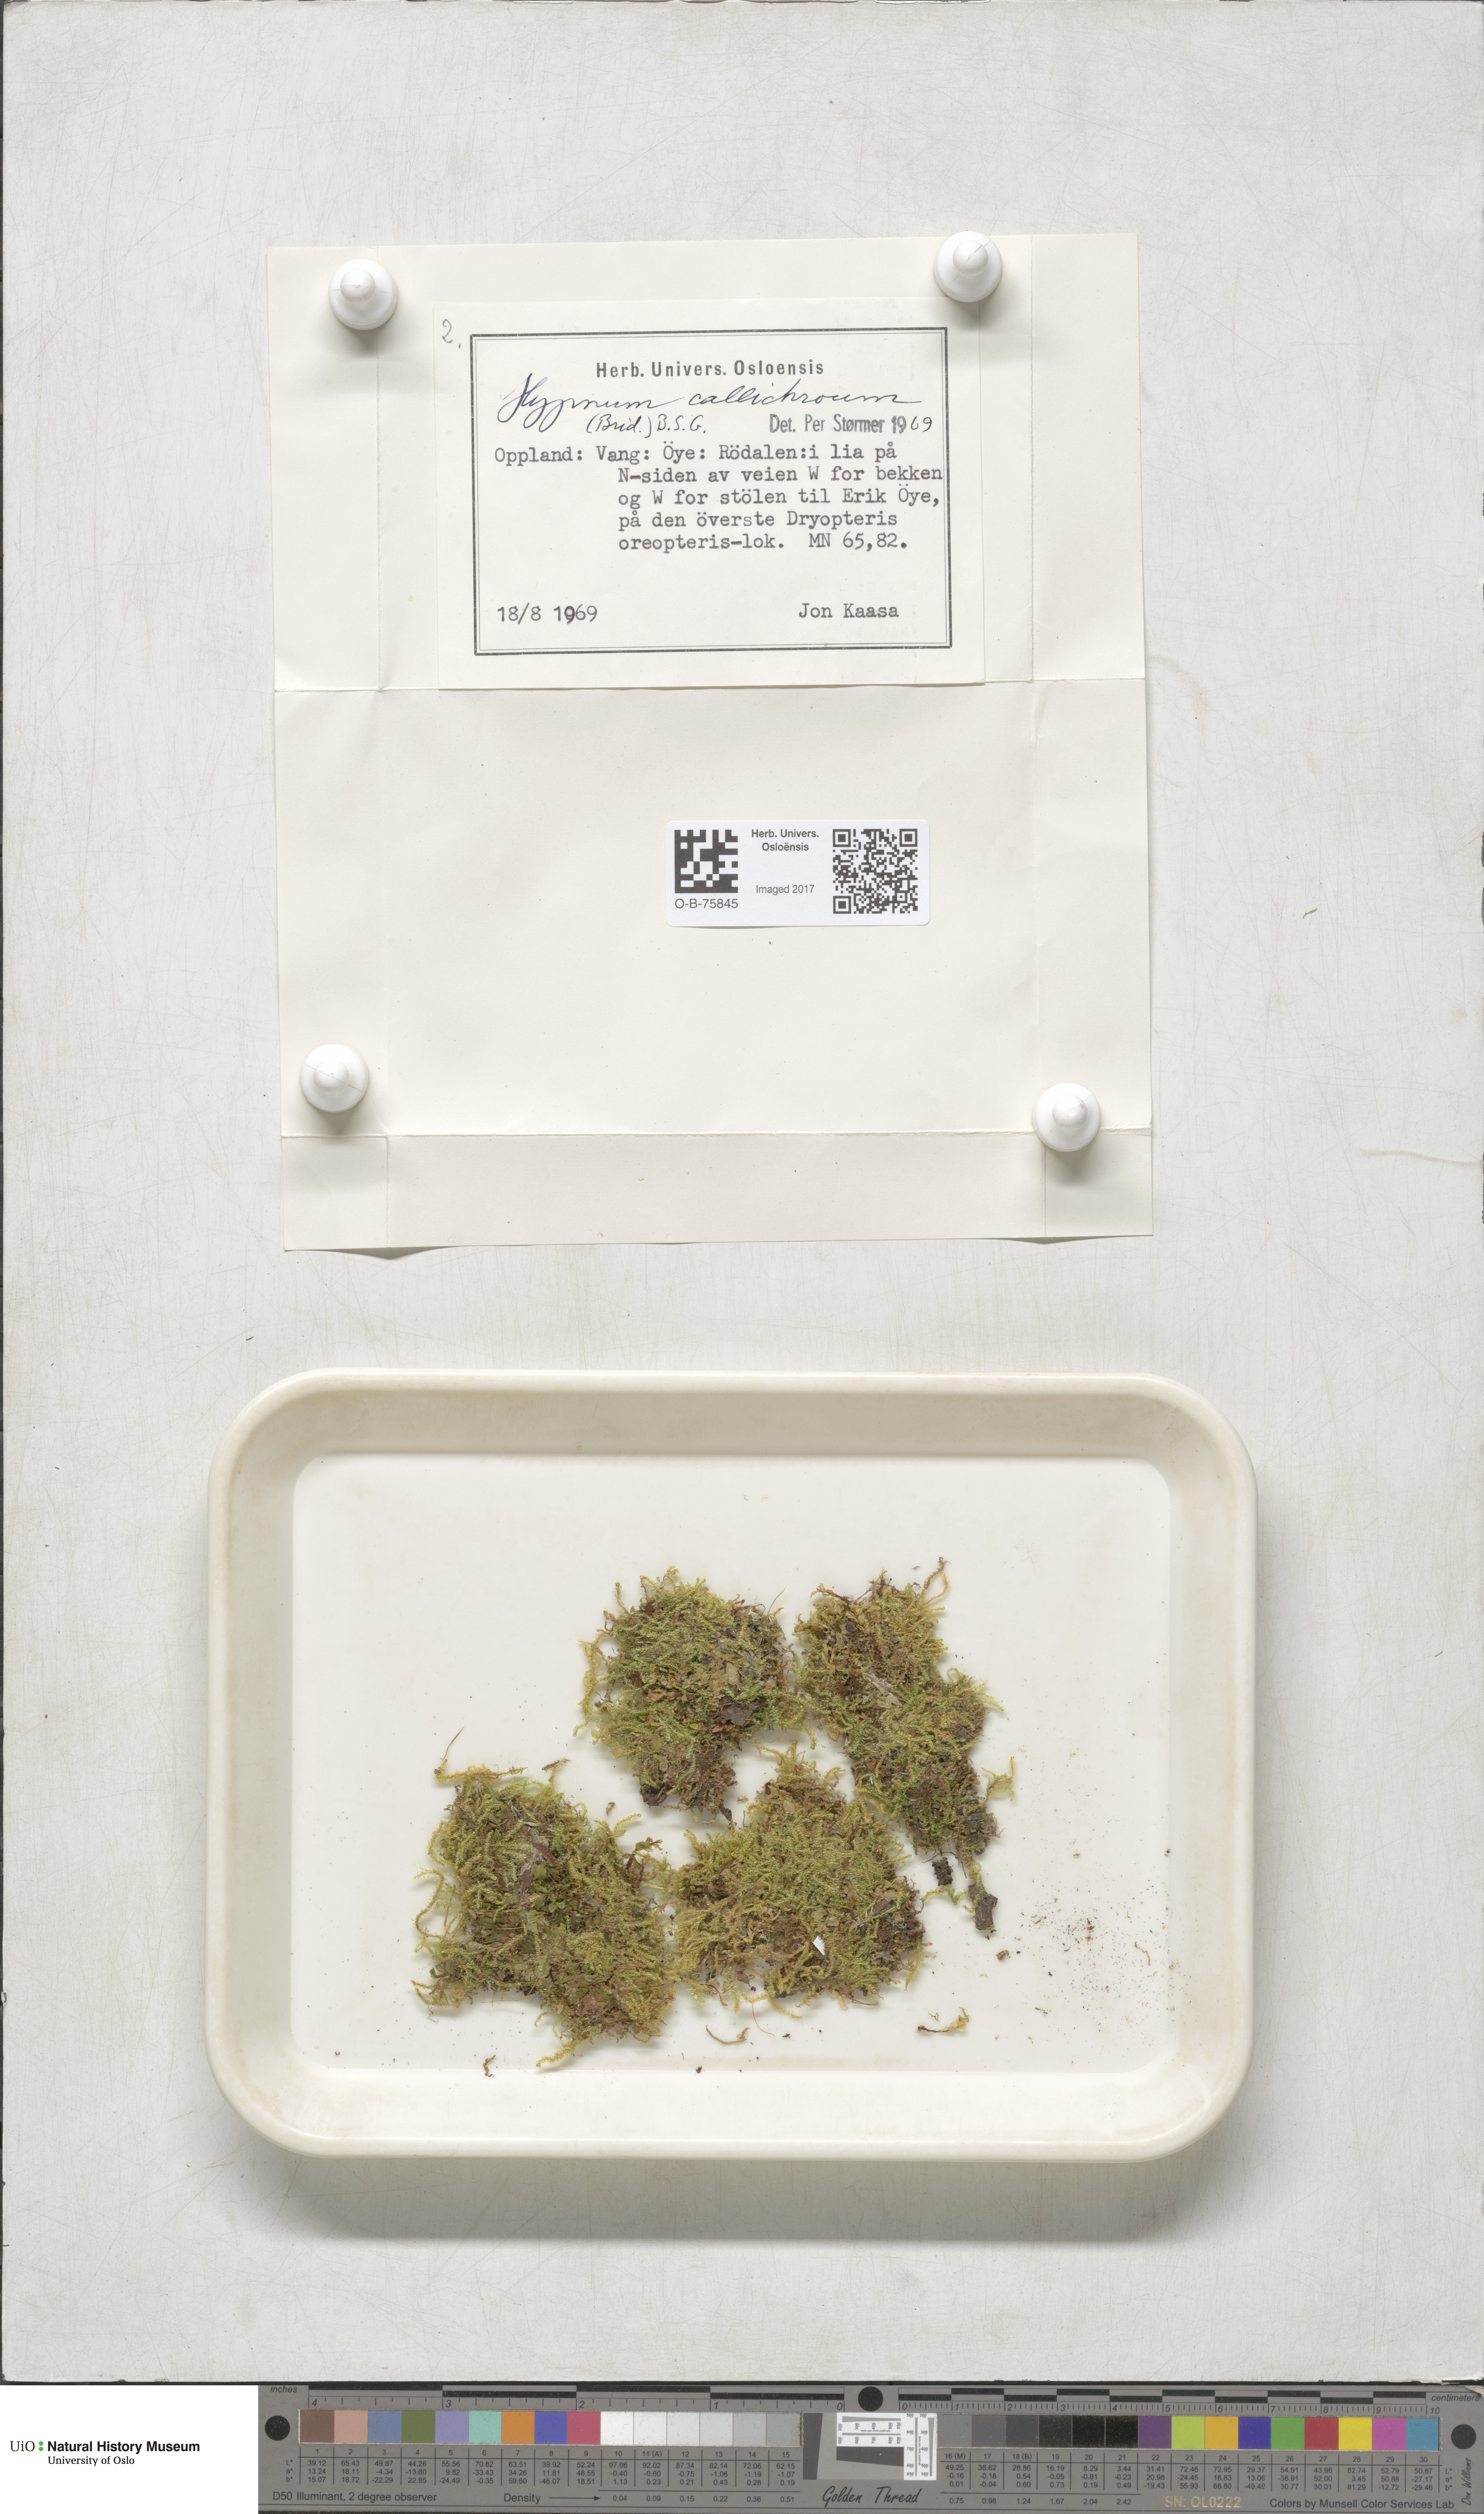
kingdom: Plantae
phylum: Bryophyta
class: Bryopsida
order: Hypnales
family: Stereodontaceae
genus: Stereodon
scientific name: Stereodon callichrous
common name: Downy plait-moss
